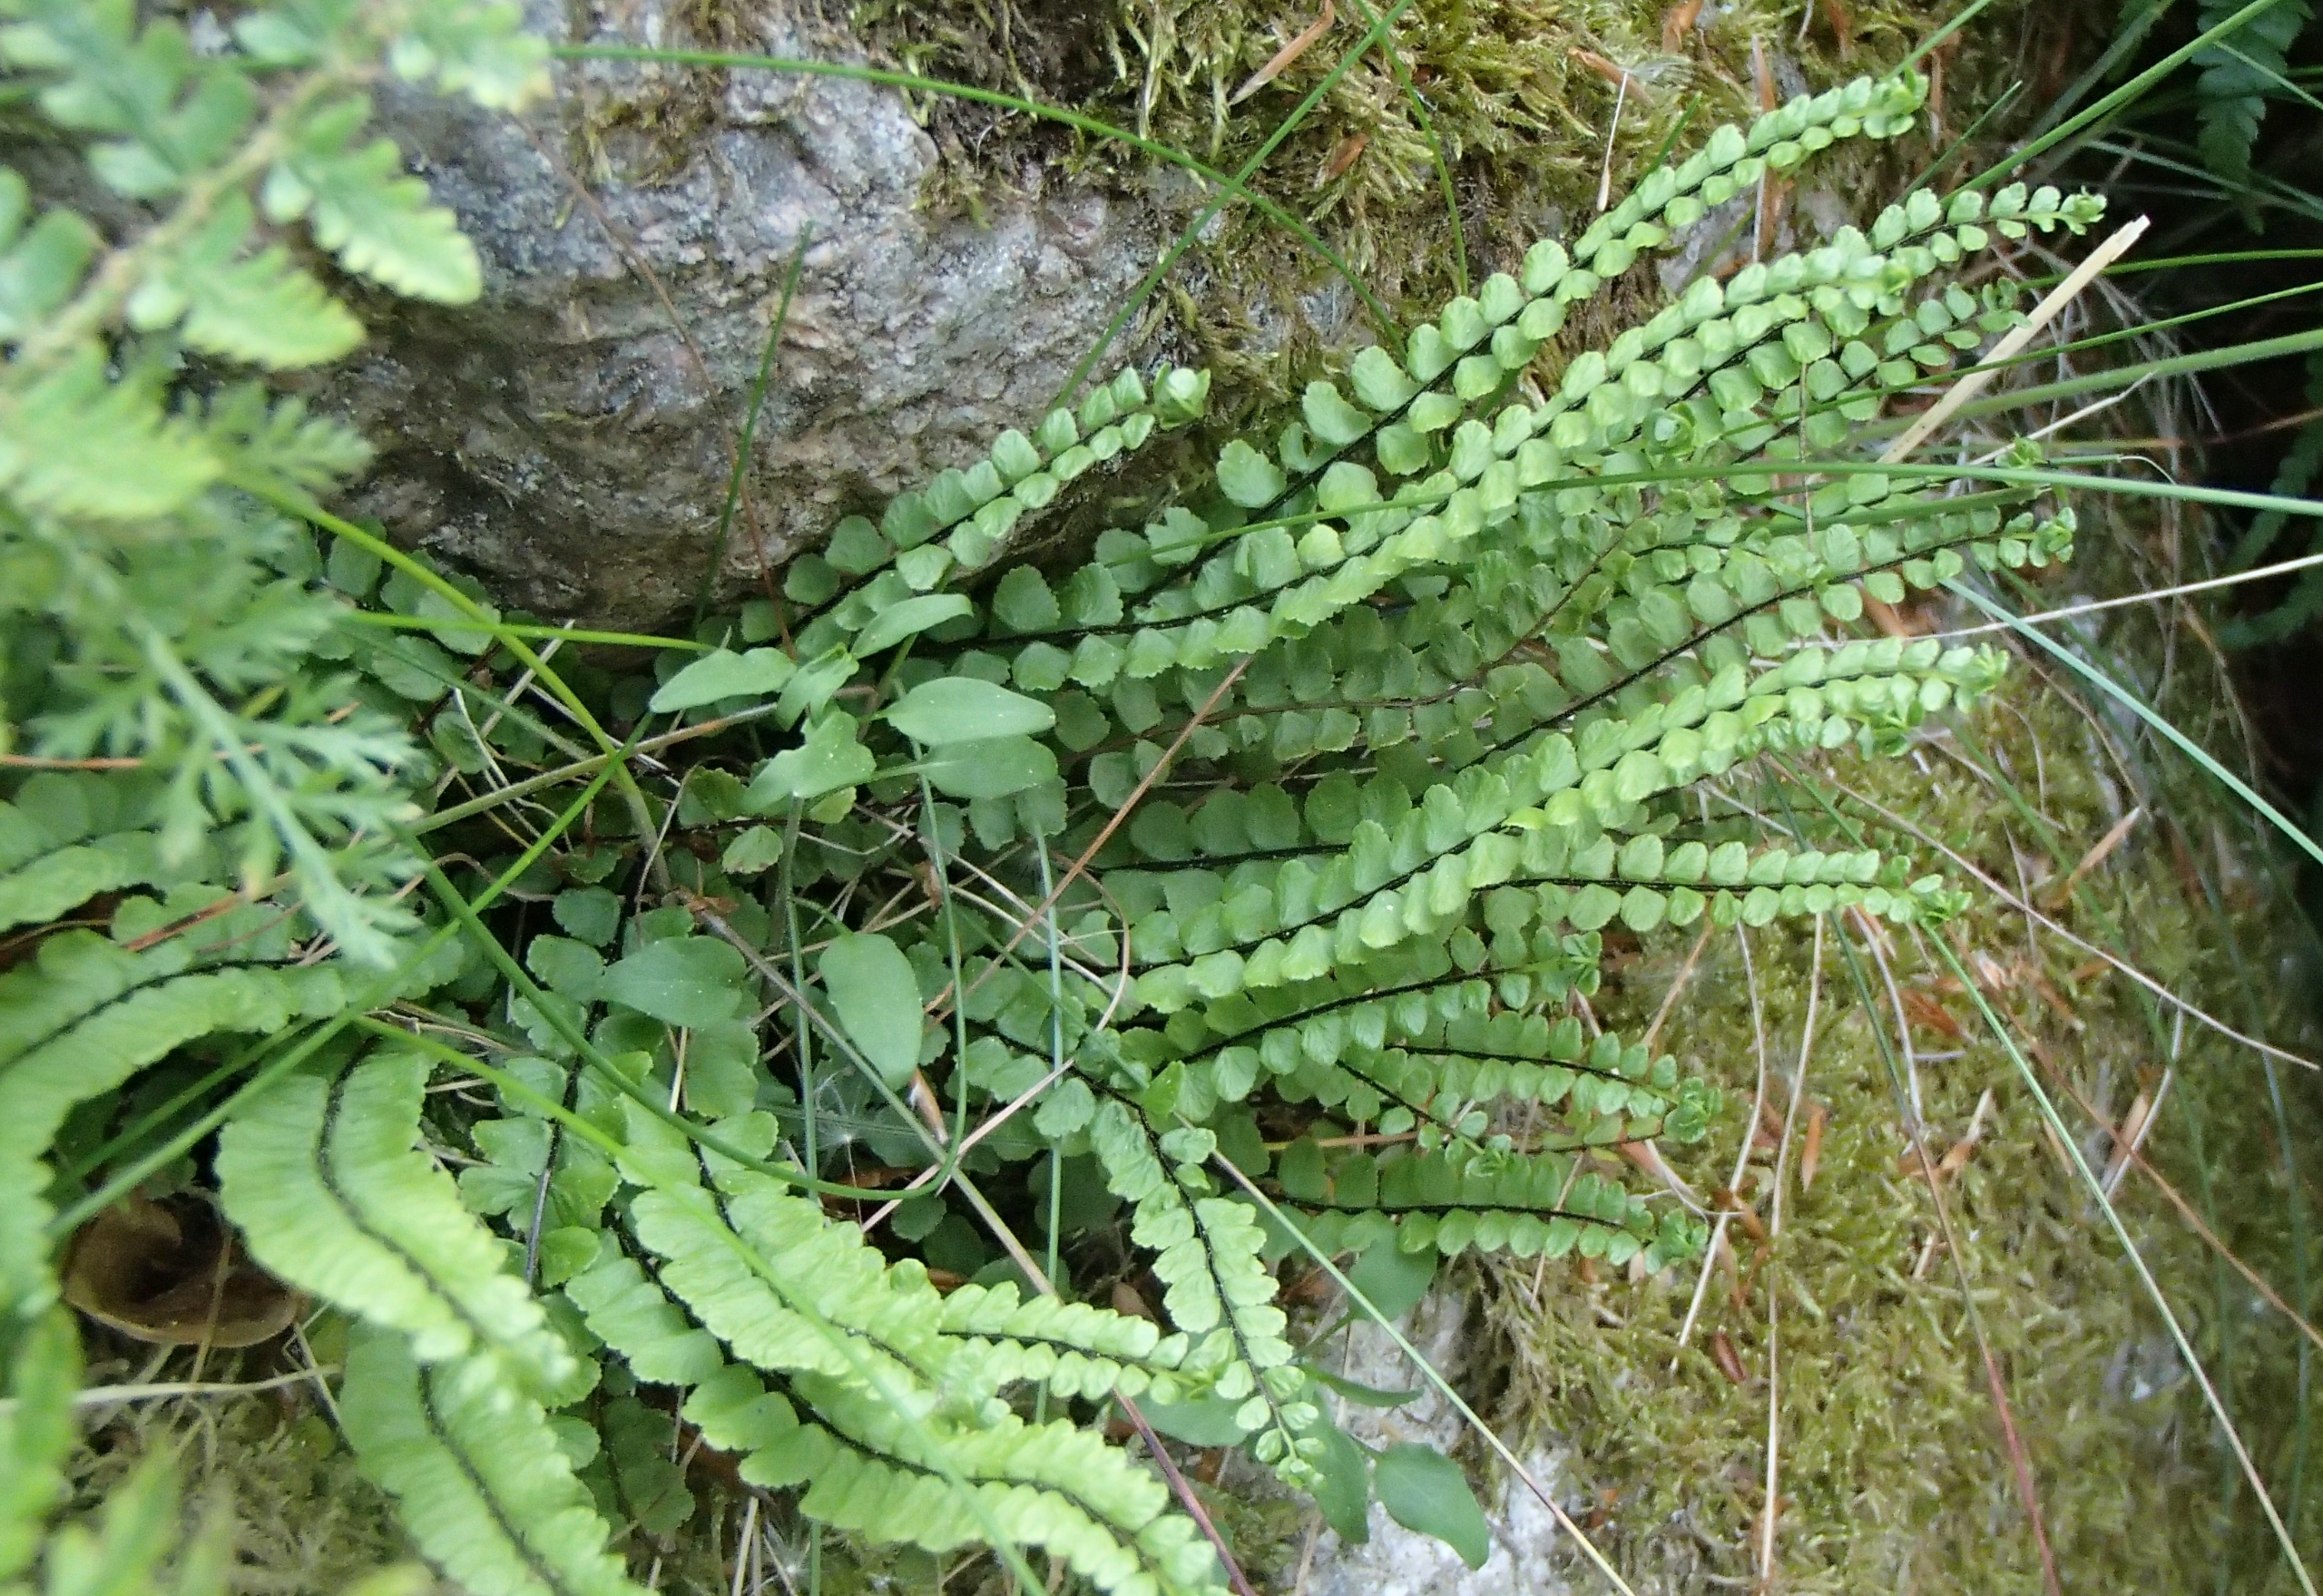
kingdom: Plantae
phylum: Tracheophyta
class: Polypodiopsida
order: Polypodiales
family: Aspleniaceae
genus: Asplenium
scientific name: Asplenium trichomanes
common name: Rundfinnet radeløv
